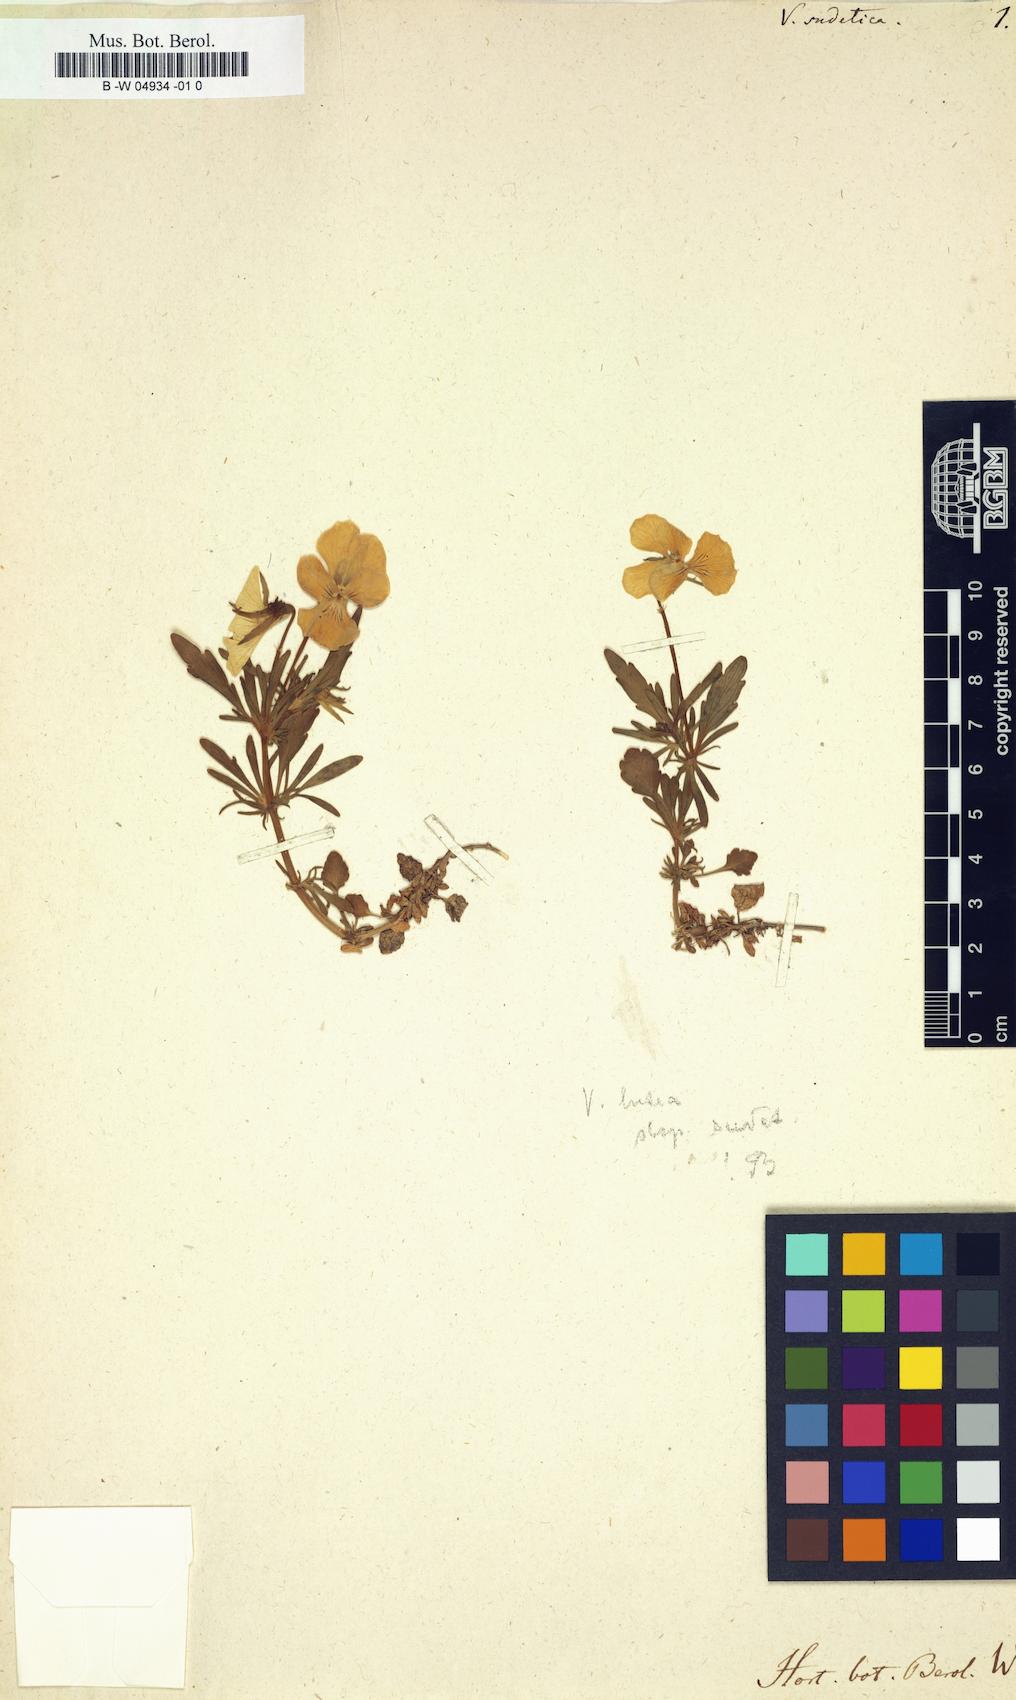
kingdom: Plantae
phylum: Tracheophyta
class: Magnoliopsida
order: Malpighiales
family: Violaceae
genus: Viola
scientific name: Viola lutea
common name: Mountain pansy
